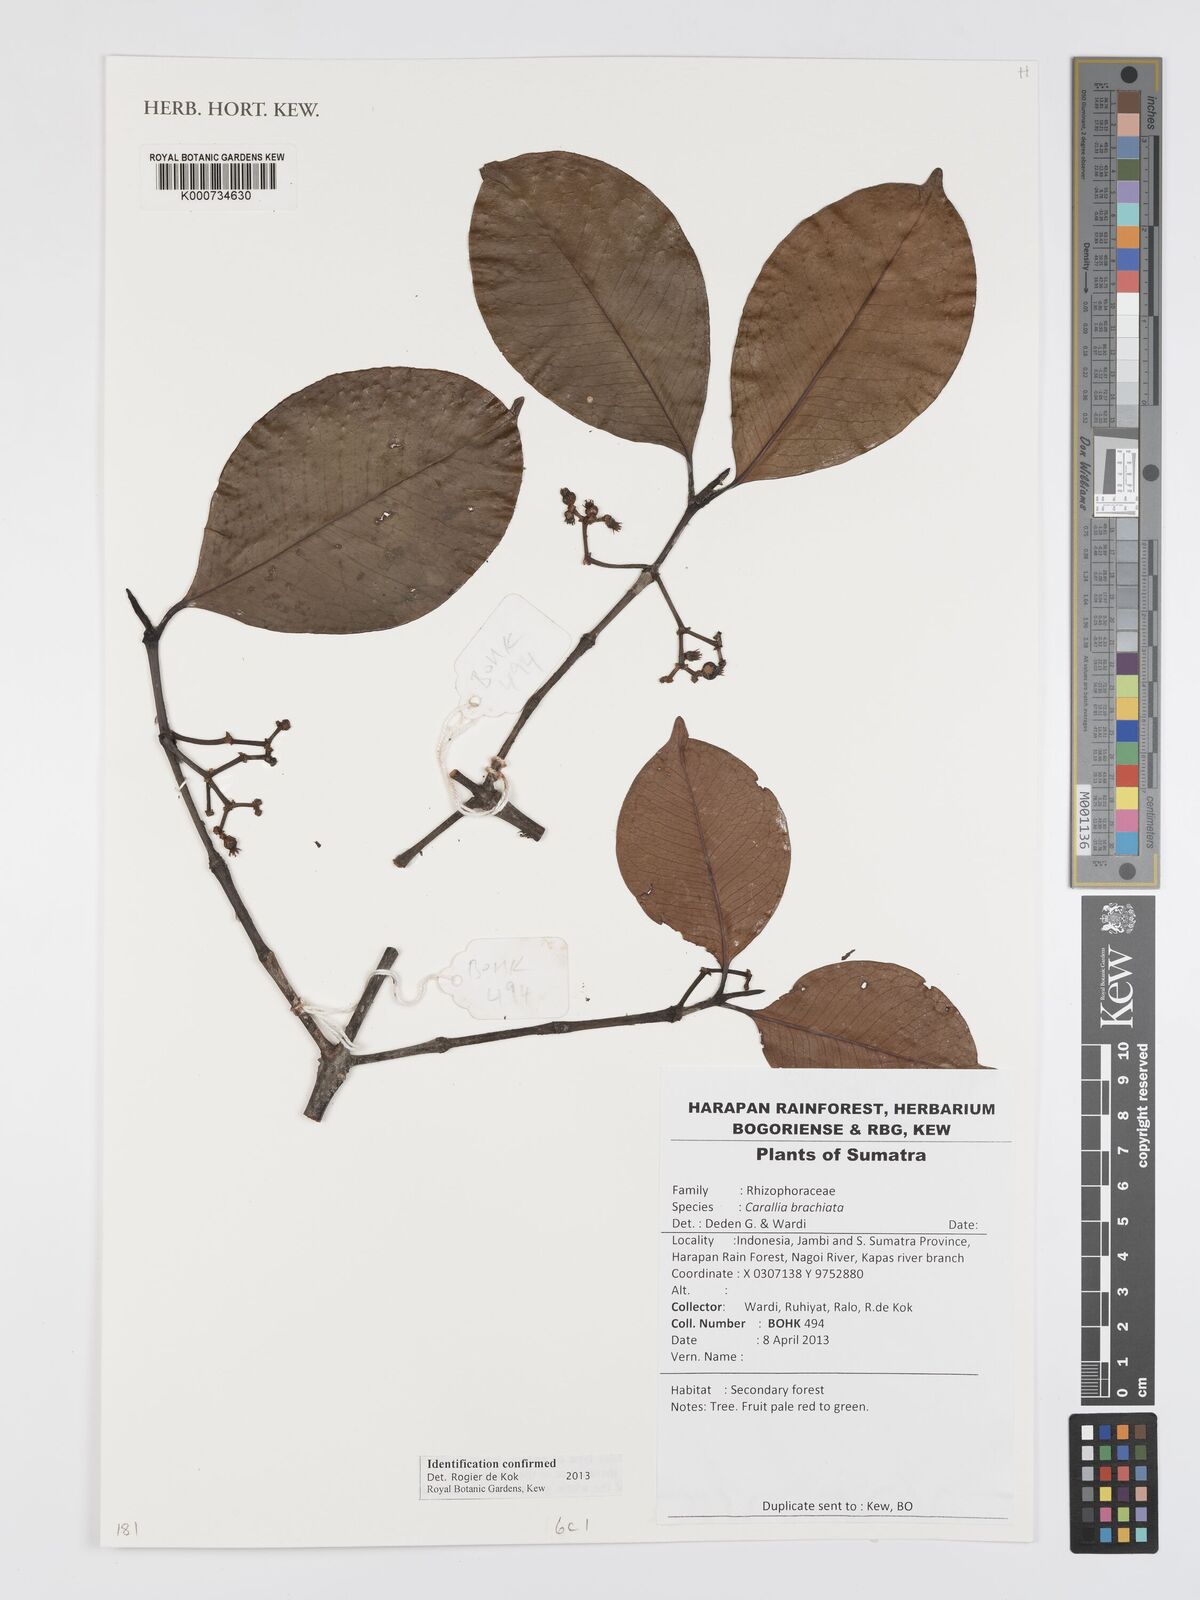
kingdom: Plantae
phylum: Tracheophyta
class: Magnoliopsida
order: Malpighiales
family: Rhizophoraceae
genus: Carallia
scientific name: Carallia brachiata
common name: Carallawood
